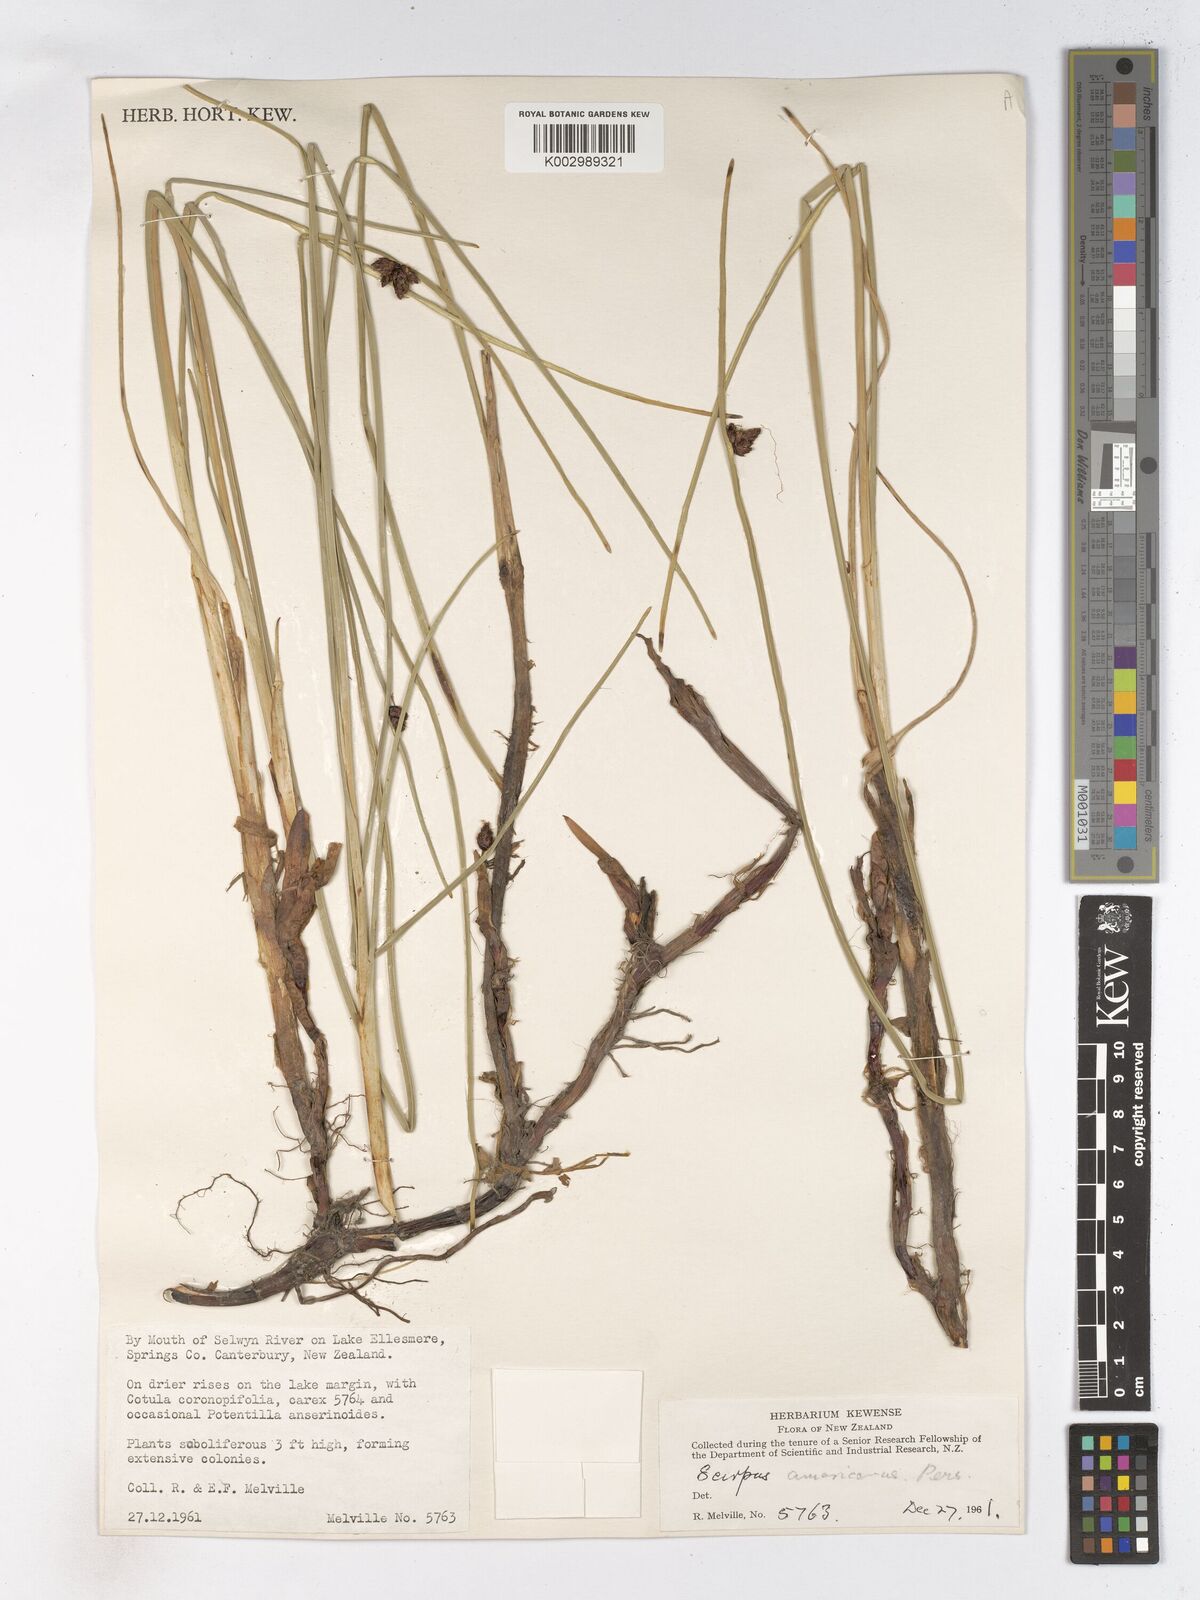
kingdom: Plantae
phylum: Tracheophyta
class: Liliopsida
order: Poales
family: Cyperaceae
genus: Schoenoplectus
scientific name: Schoenoplectus americanus
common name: American three-square bulrush
